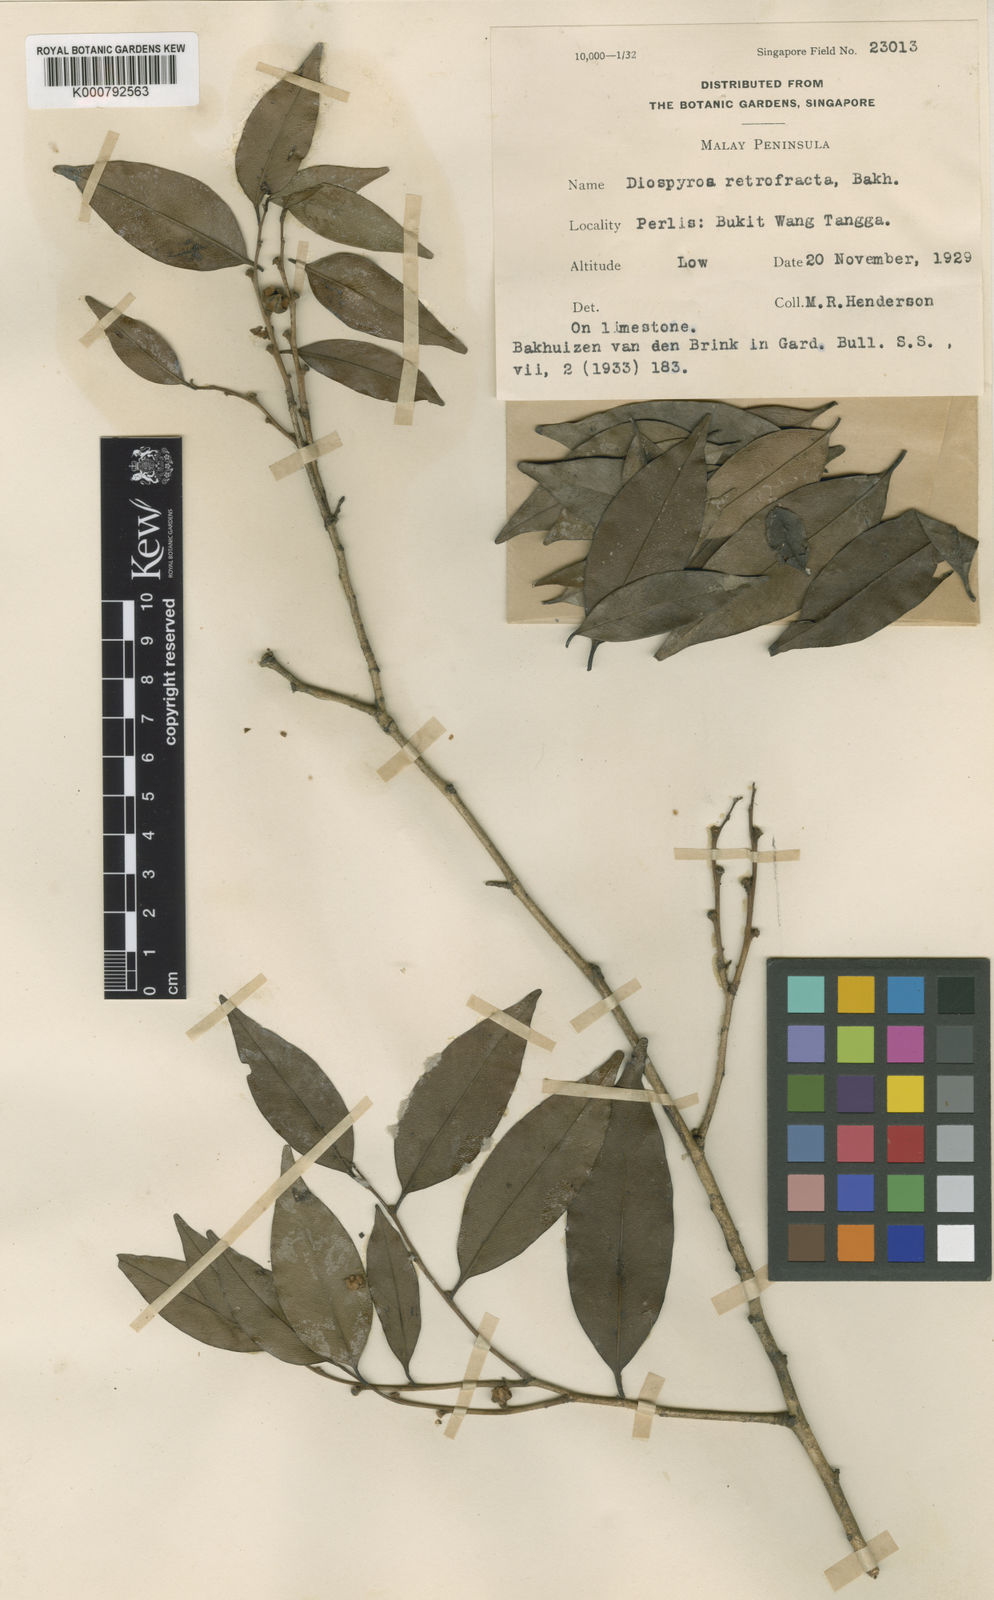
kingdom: Plantae
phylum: Tracheophyta
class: Magnoliopsida
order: Ericales
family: Ebenaceae
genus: Diospyros
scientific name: Diospyros bejaudii
